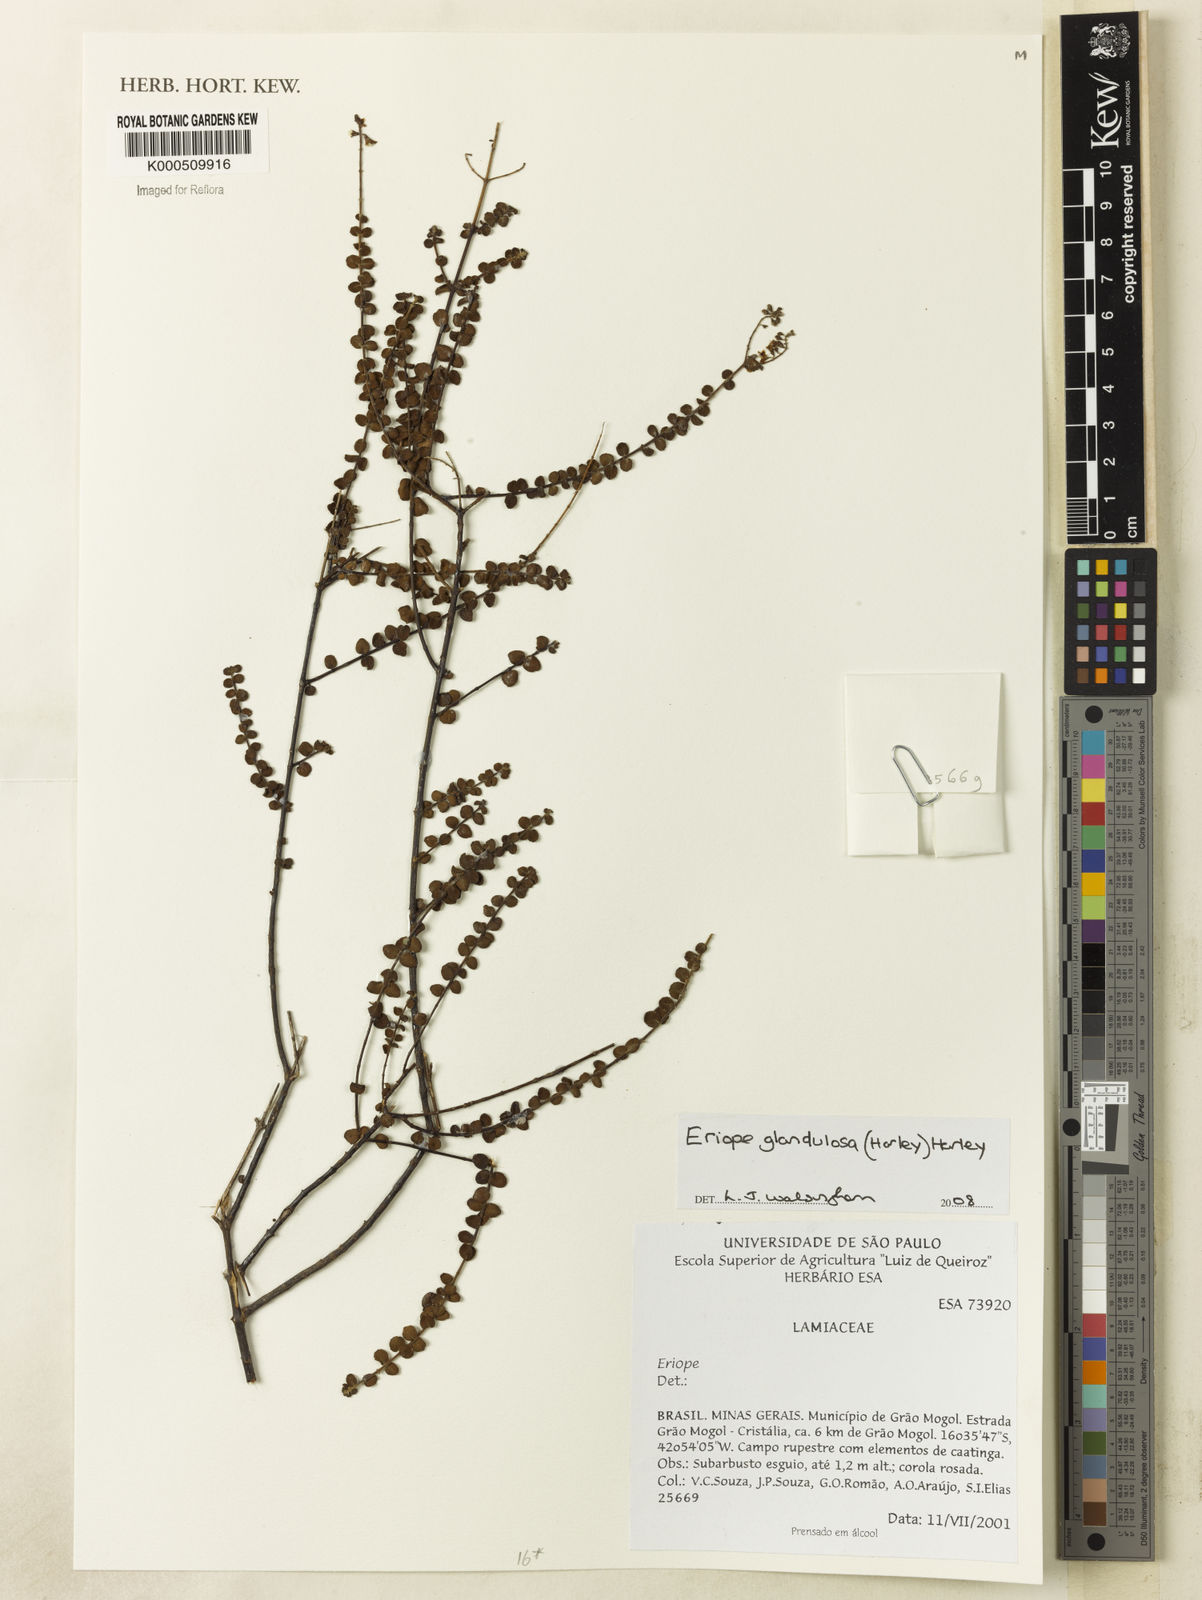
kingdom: Plantae
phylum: Tracheophyta
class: Magnoliopsida
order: Lamiales
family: Lamiaceae
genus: Eriope
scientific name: Eriope glandulosa
